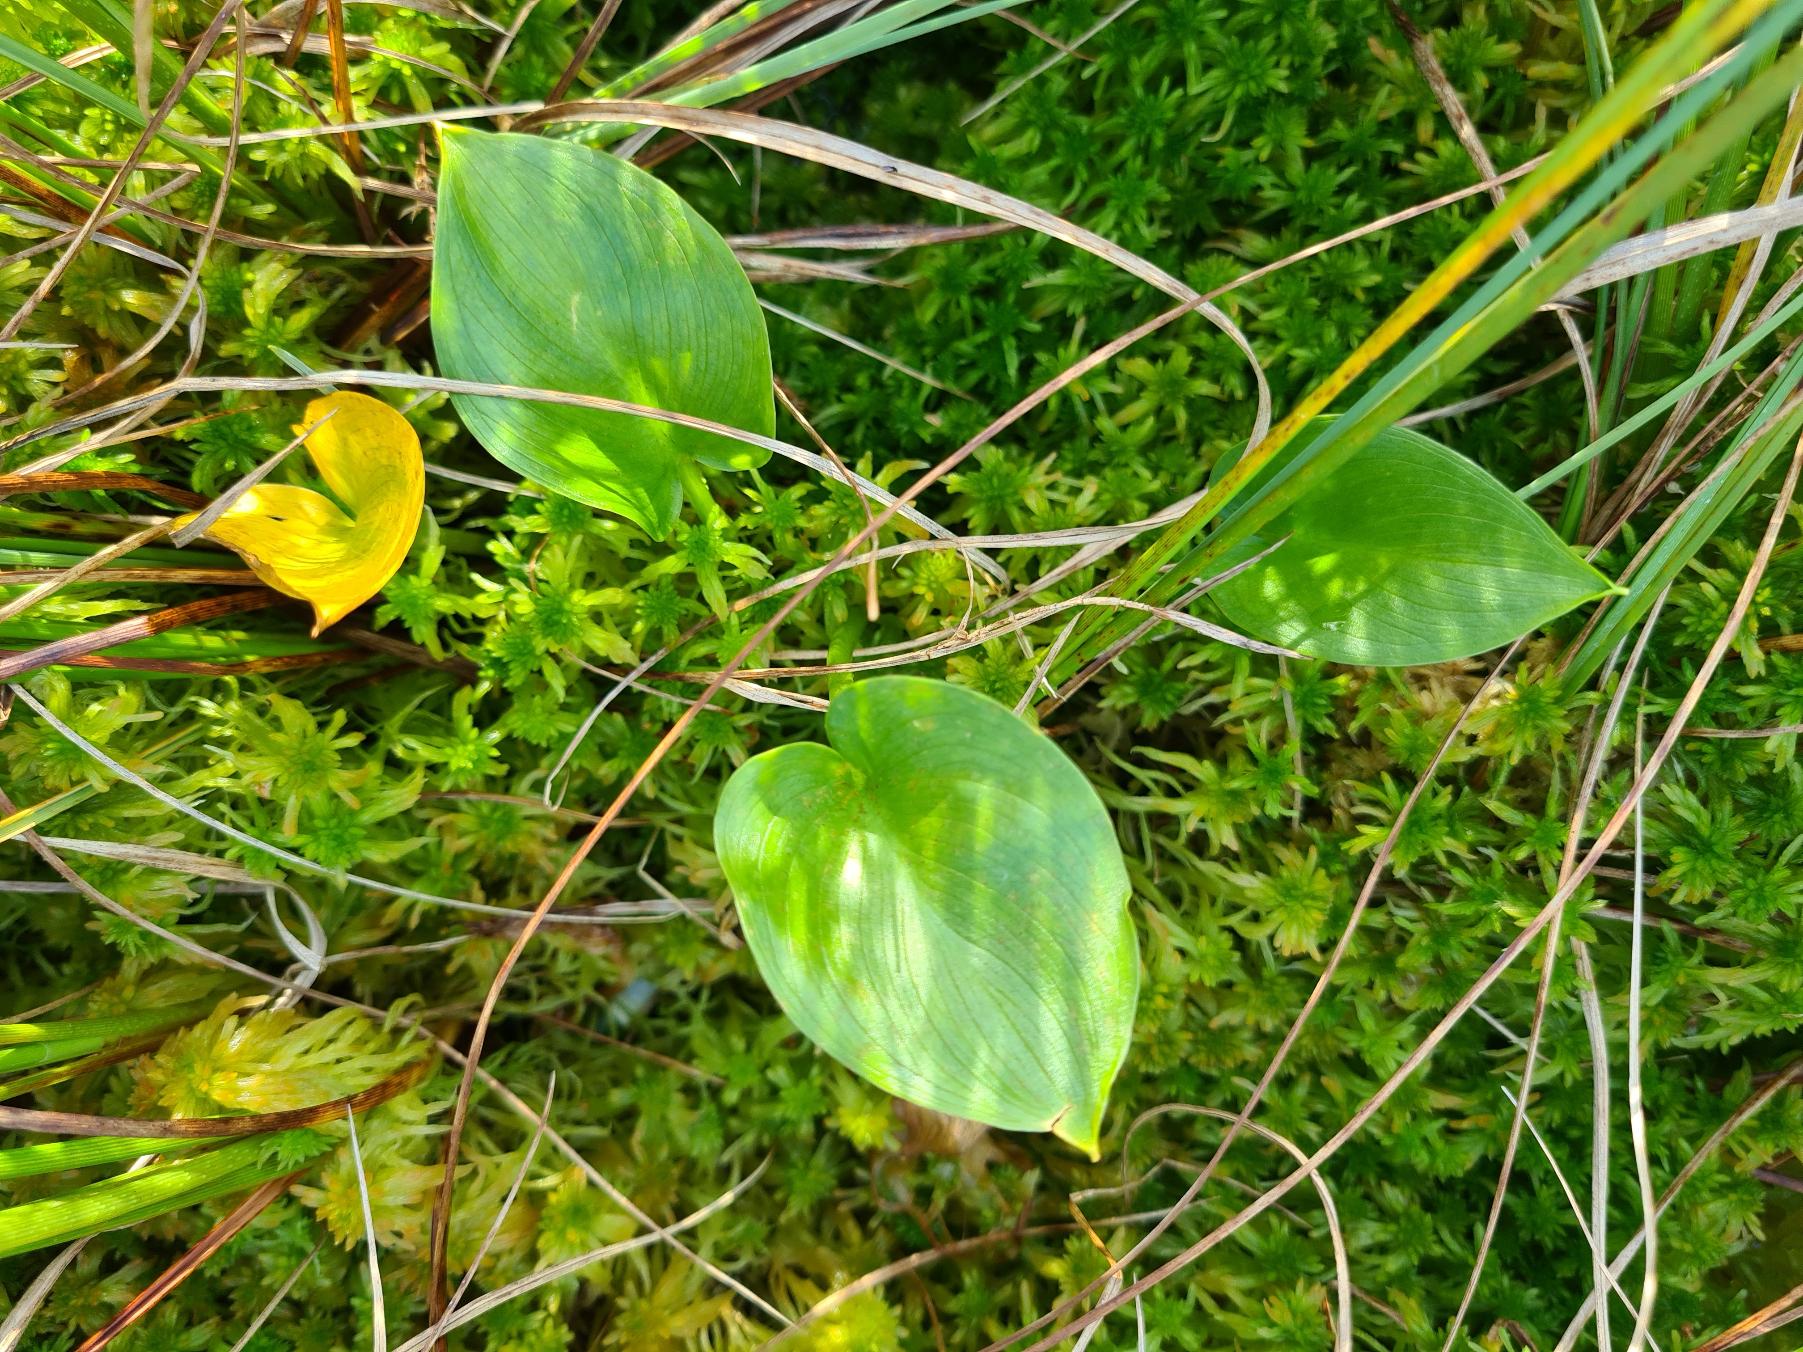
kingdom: Plantae
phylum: Tracheophyta
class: Liliopsida
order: Alismatales
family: Araceae
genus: Calla
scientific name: Calla palustris
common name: Kærmysse
